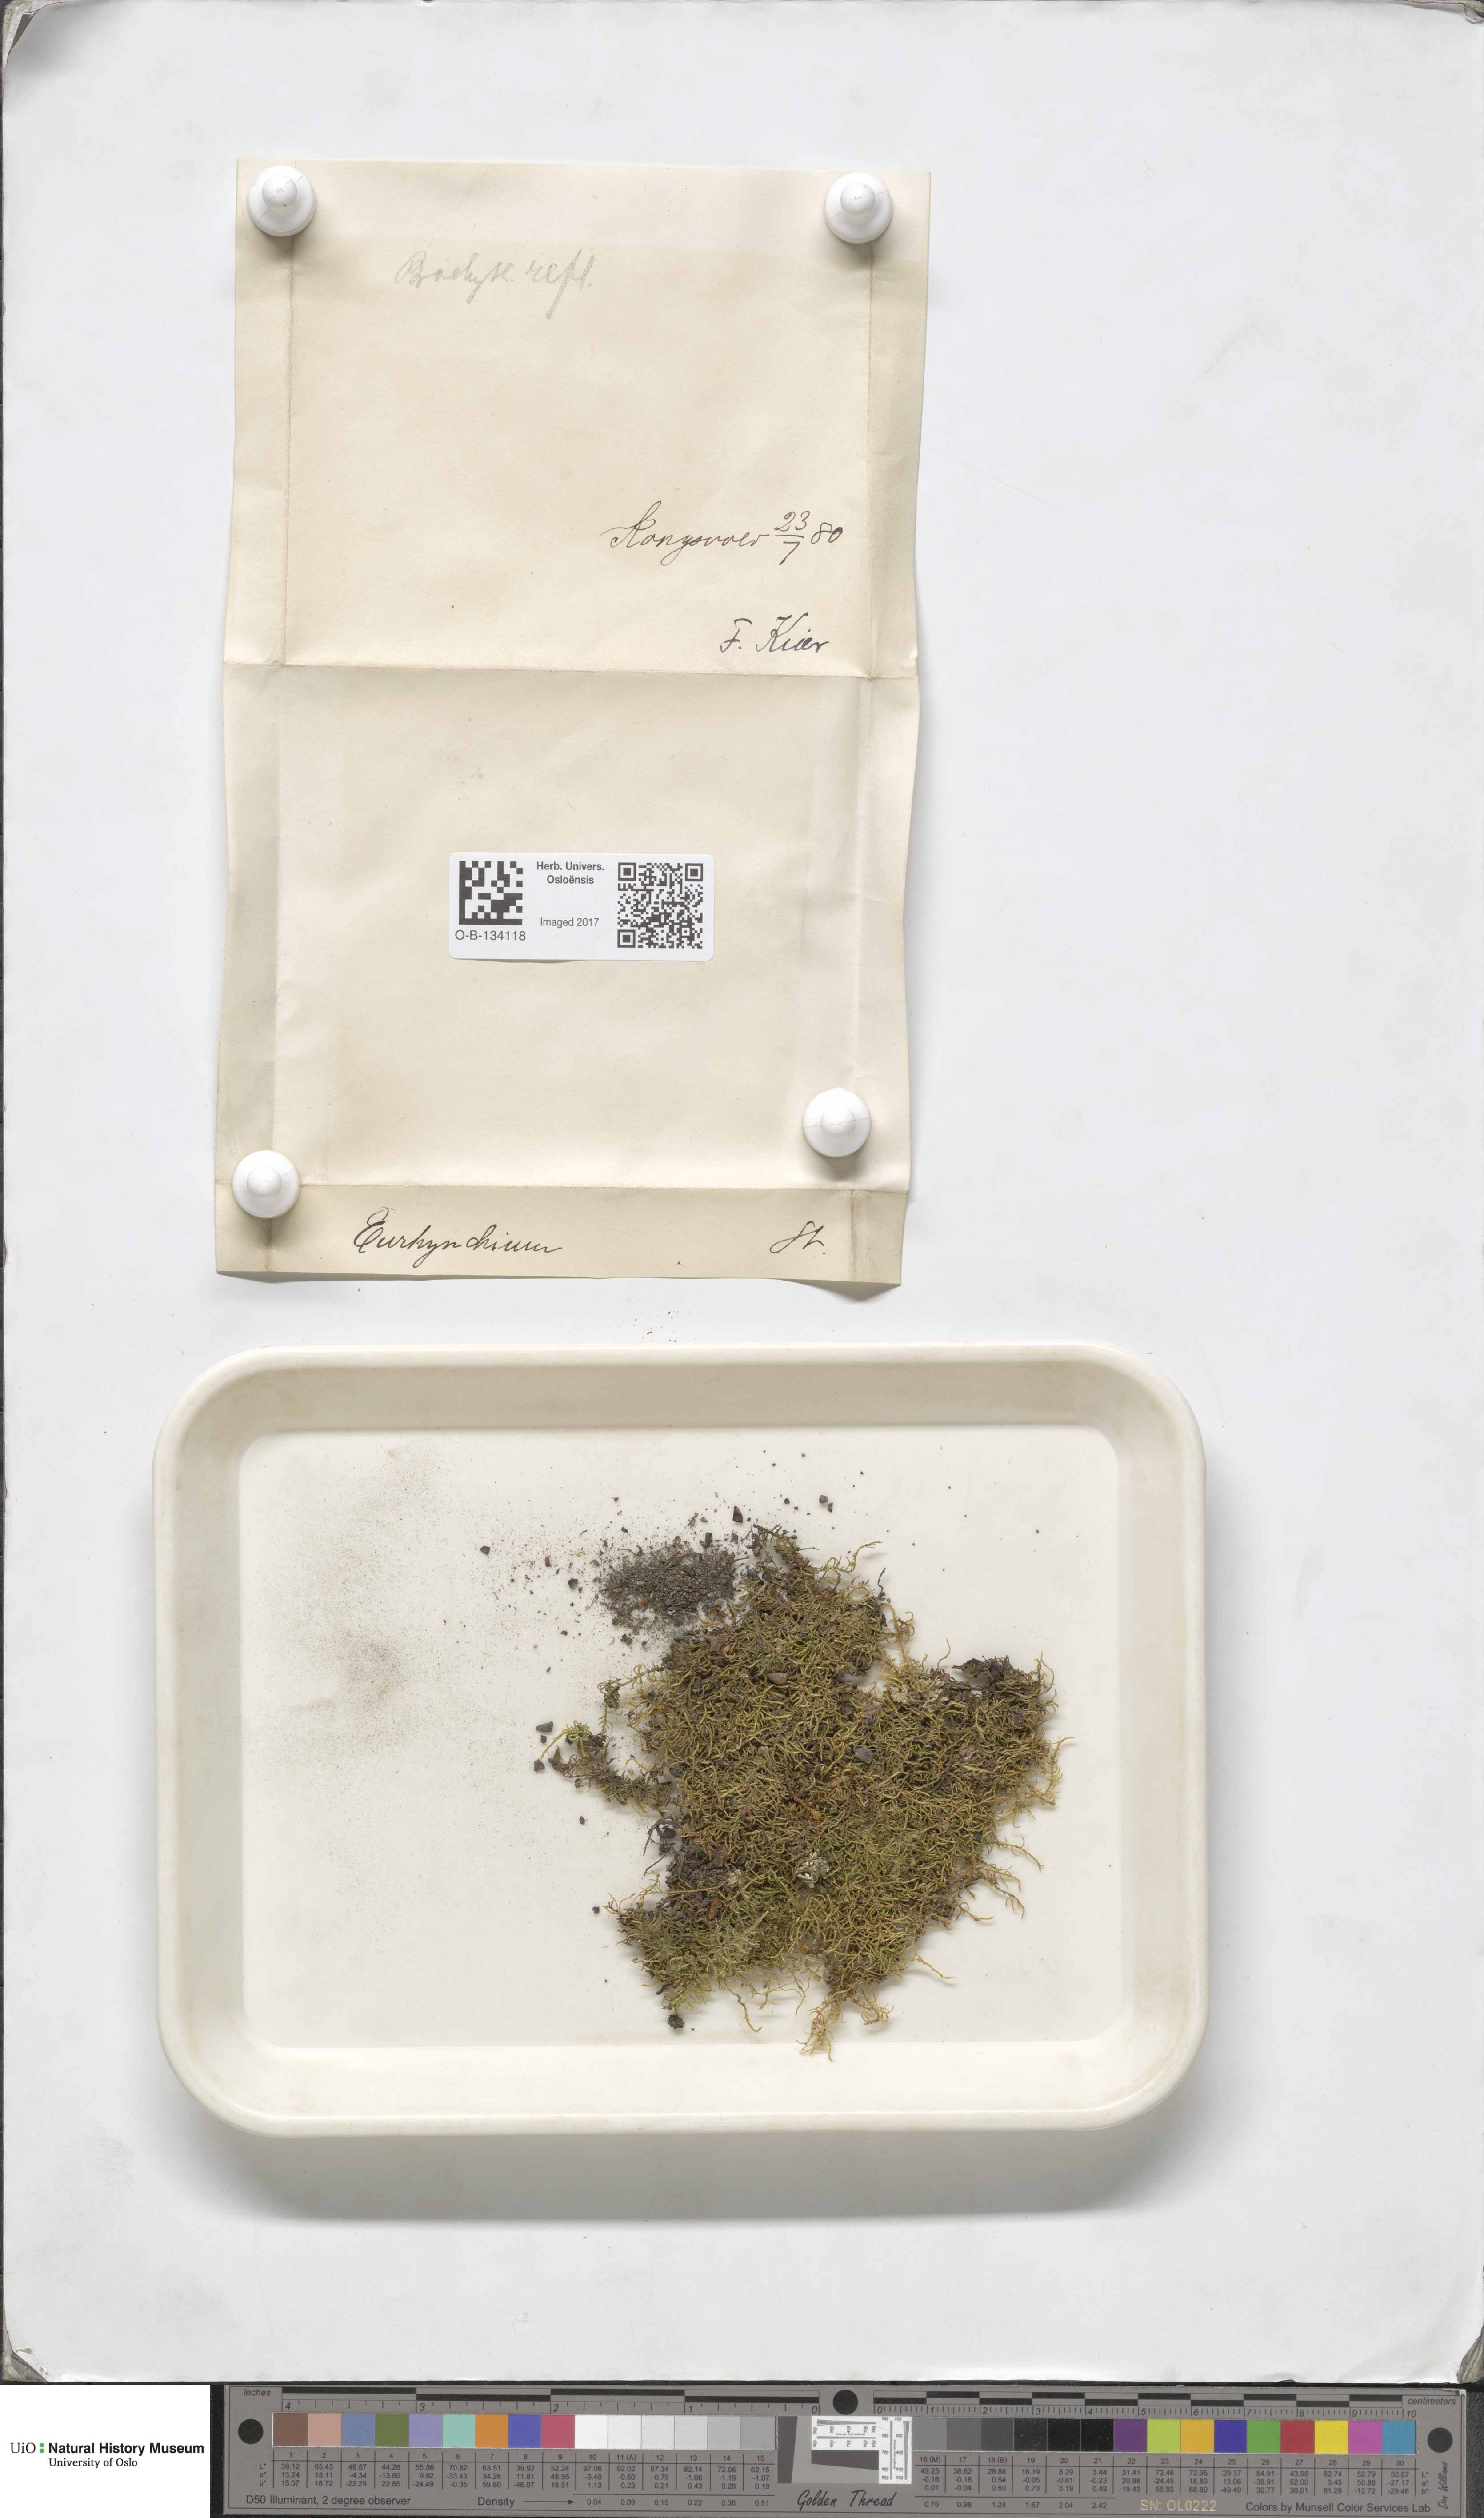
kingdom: Plantae
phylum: Bryophyta
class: Bryopsida
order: Hypnales
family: Brachytheciaceae
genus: Sciuro-hypnum
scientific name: Sciuro-hypnum reflexum
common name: Reflexed feather-moss
